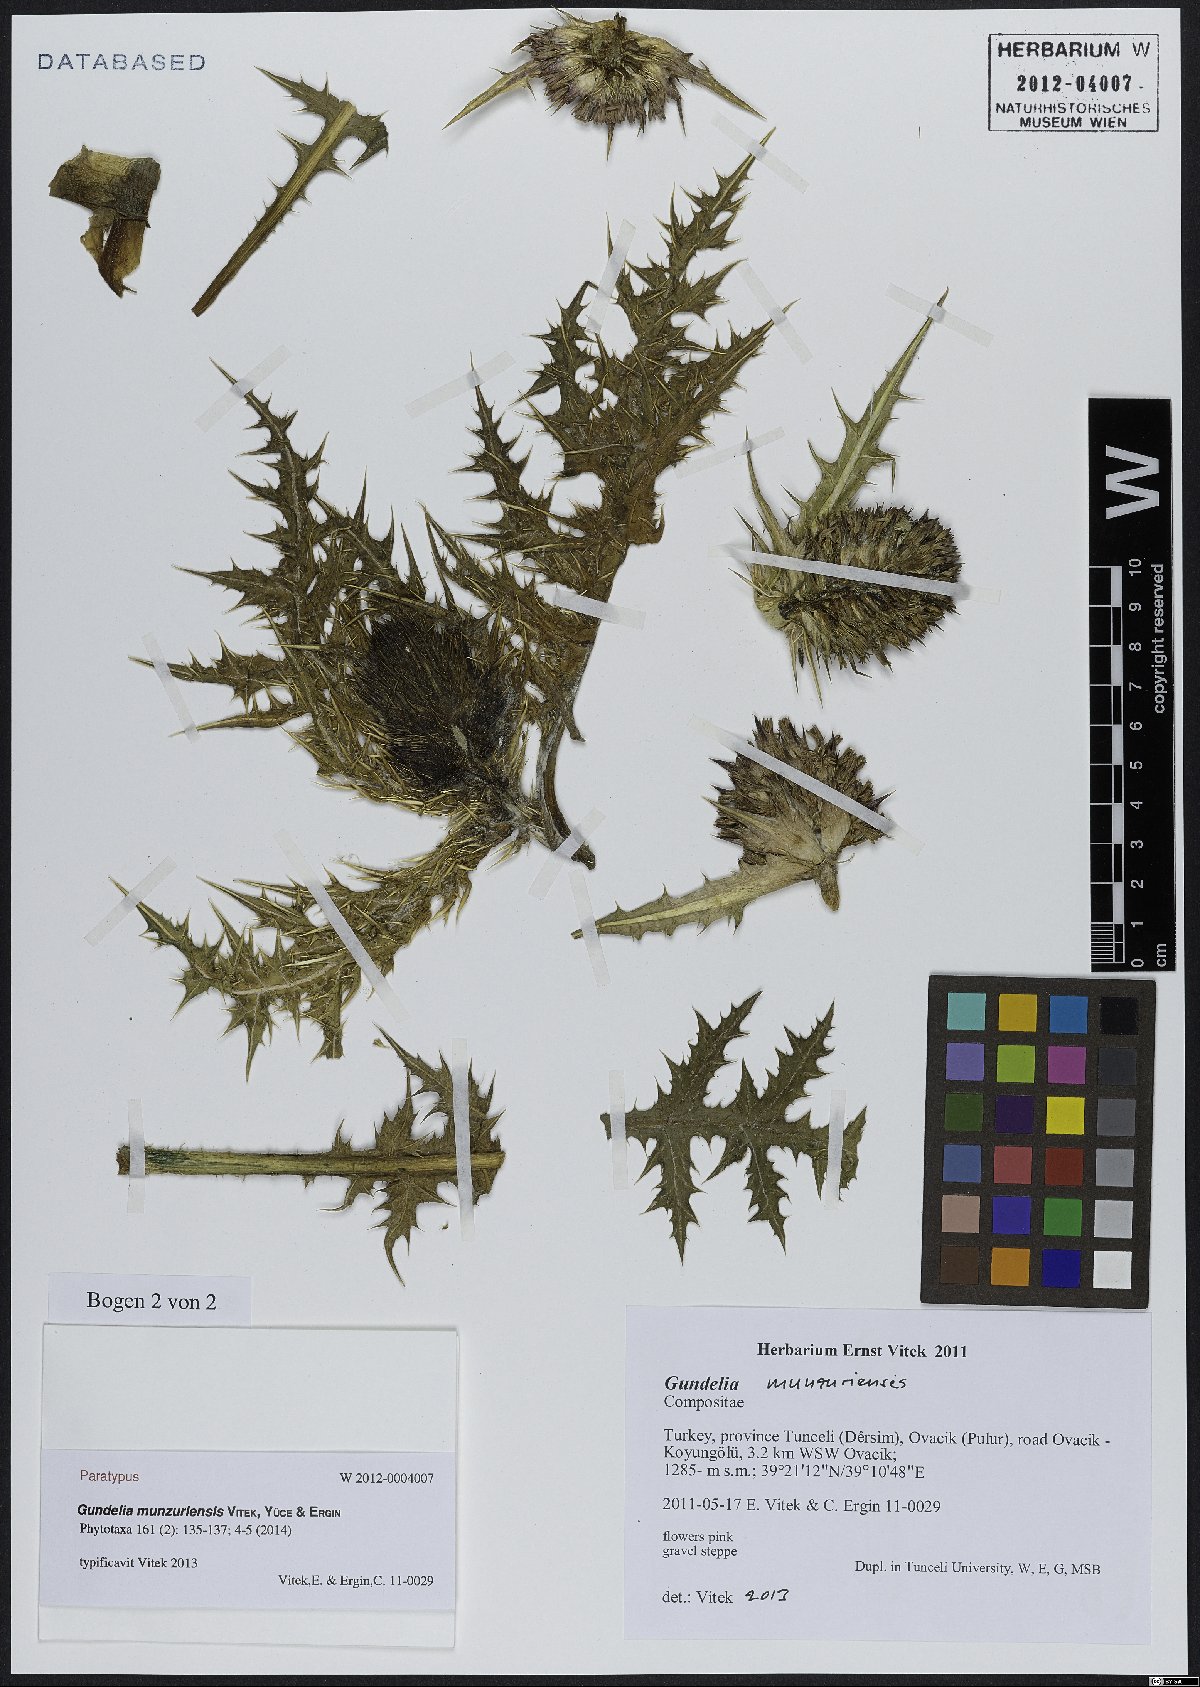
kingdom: Plantae
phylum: Tracheophyta
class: Magnoliopsida
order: Asterales
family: Asteraceae
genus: Gundelia
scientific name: Gundelia munzuriensis
